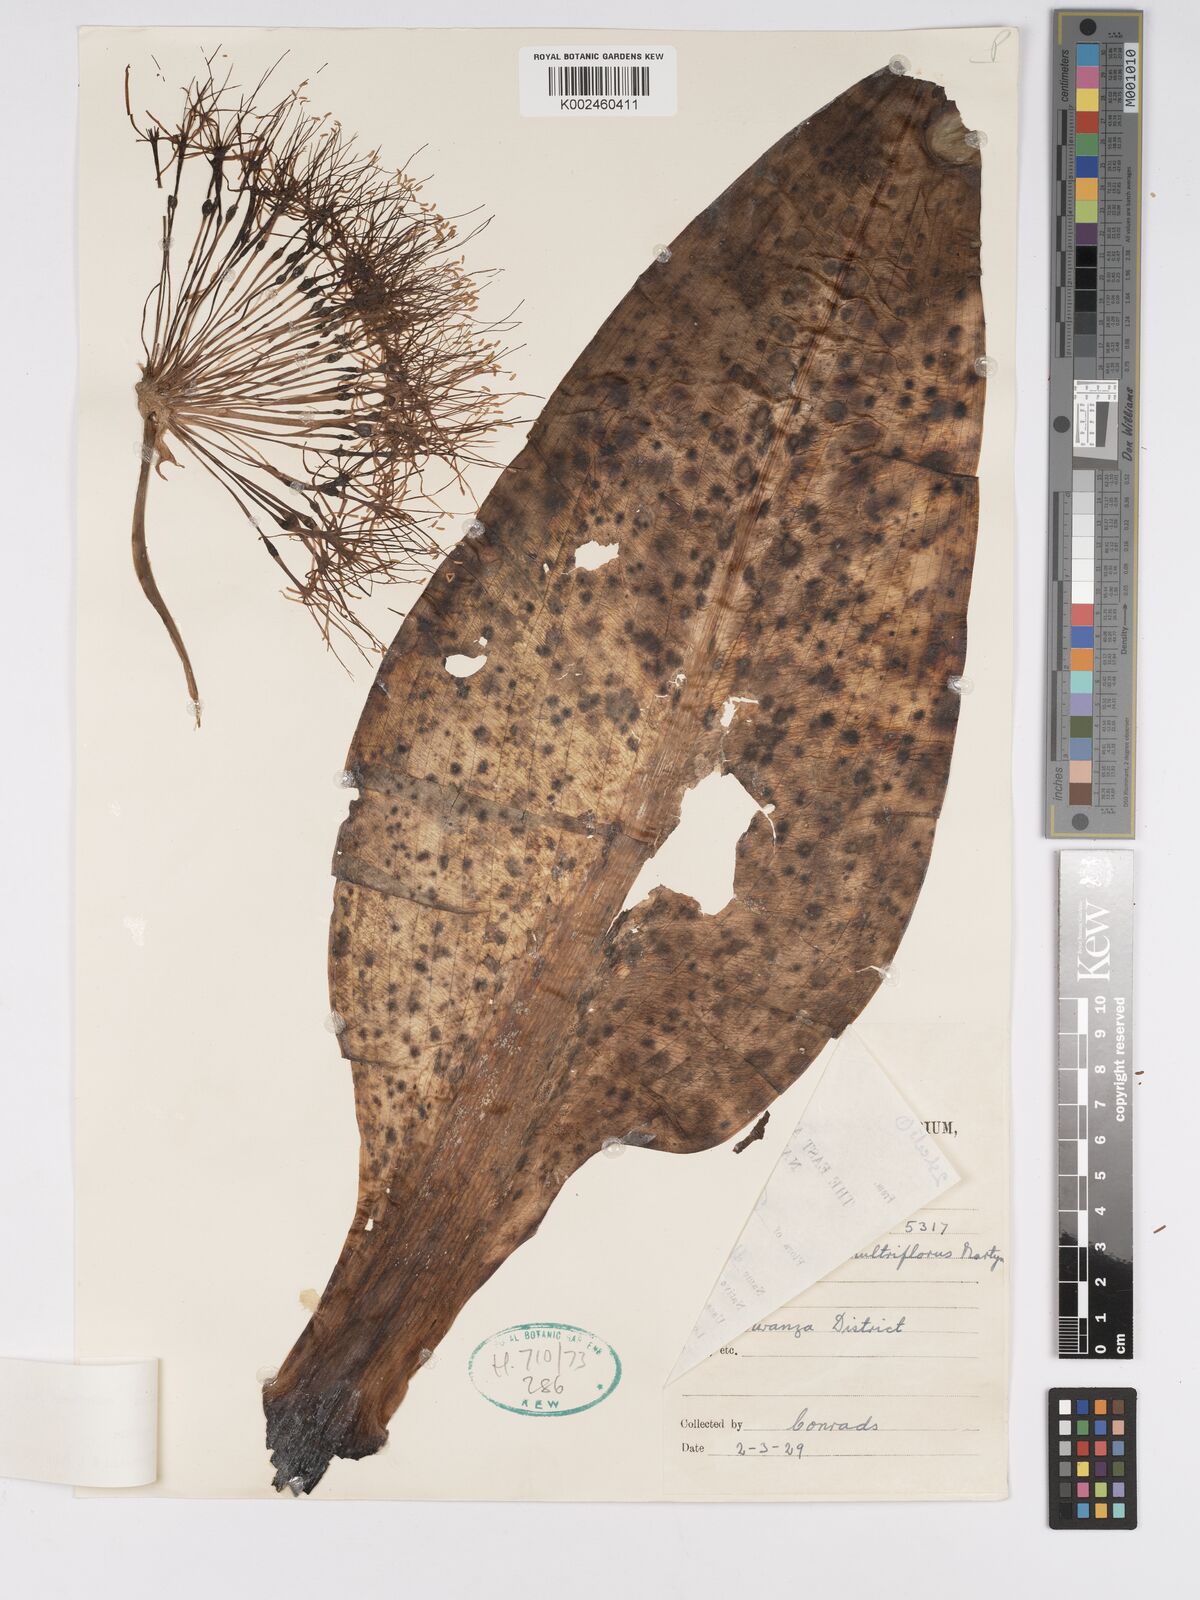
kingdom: Plantae
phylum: Tracheophyta
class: Liliopsida
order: Asparagales
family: Amaryllidaceae
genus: Scadoxus
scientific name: Scadoxus multiflorus
